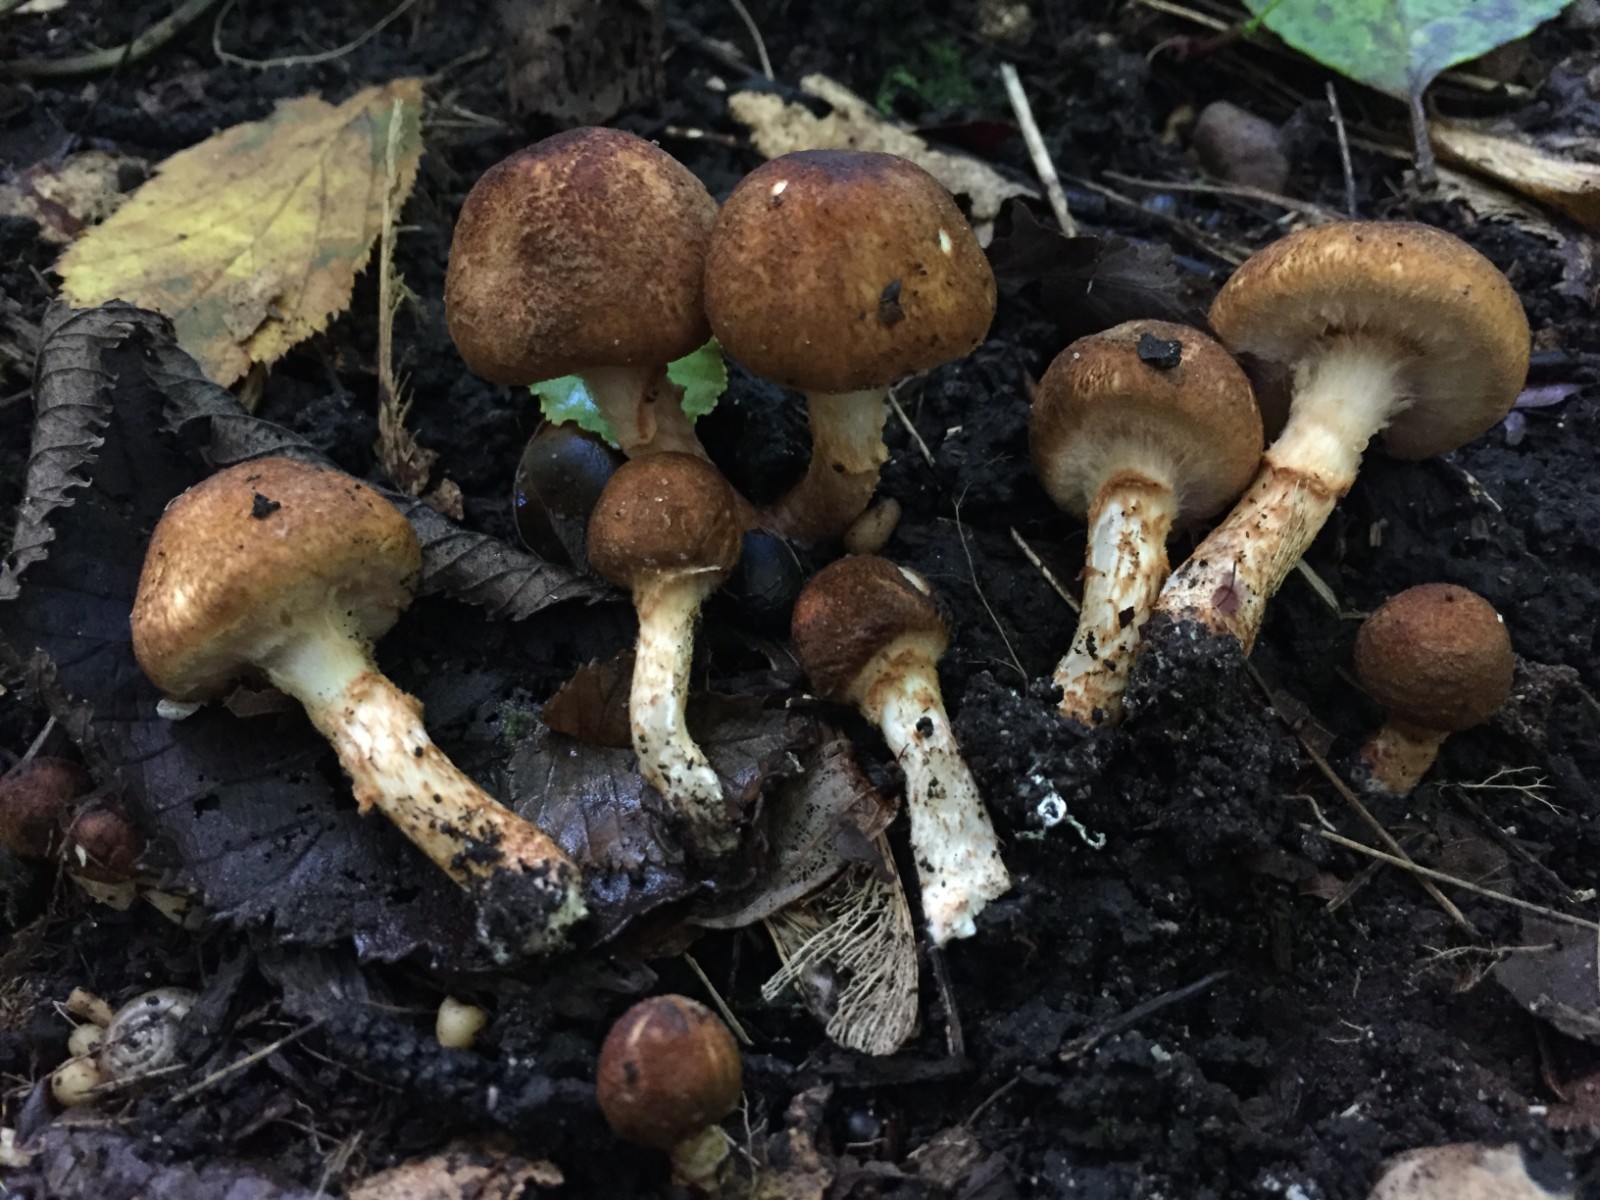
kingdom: Fungi
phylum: Basidiomycota
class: Agaricomycetes
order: Agaricales
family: Agaricaceae
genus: Leucocoprinus
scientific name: Leucocoprinus straminellus
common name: rustbrun parasolhat
